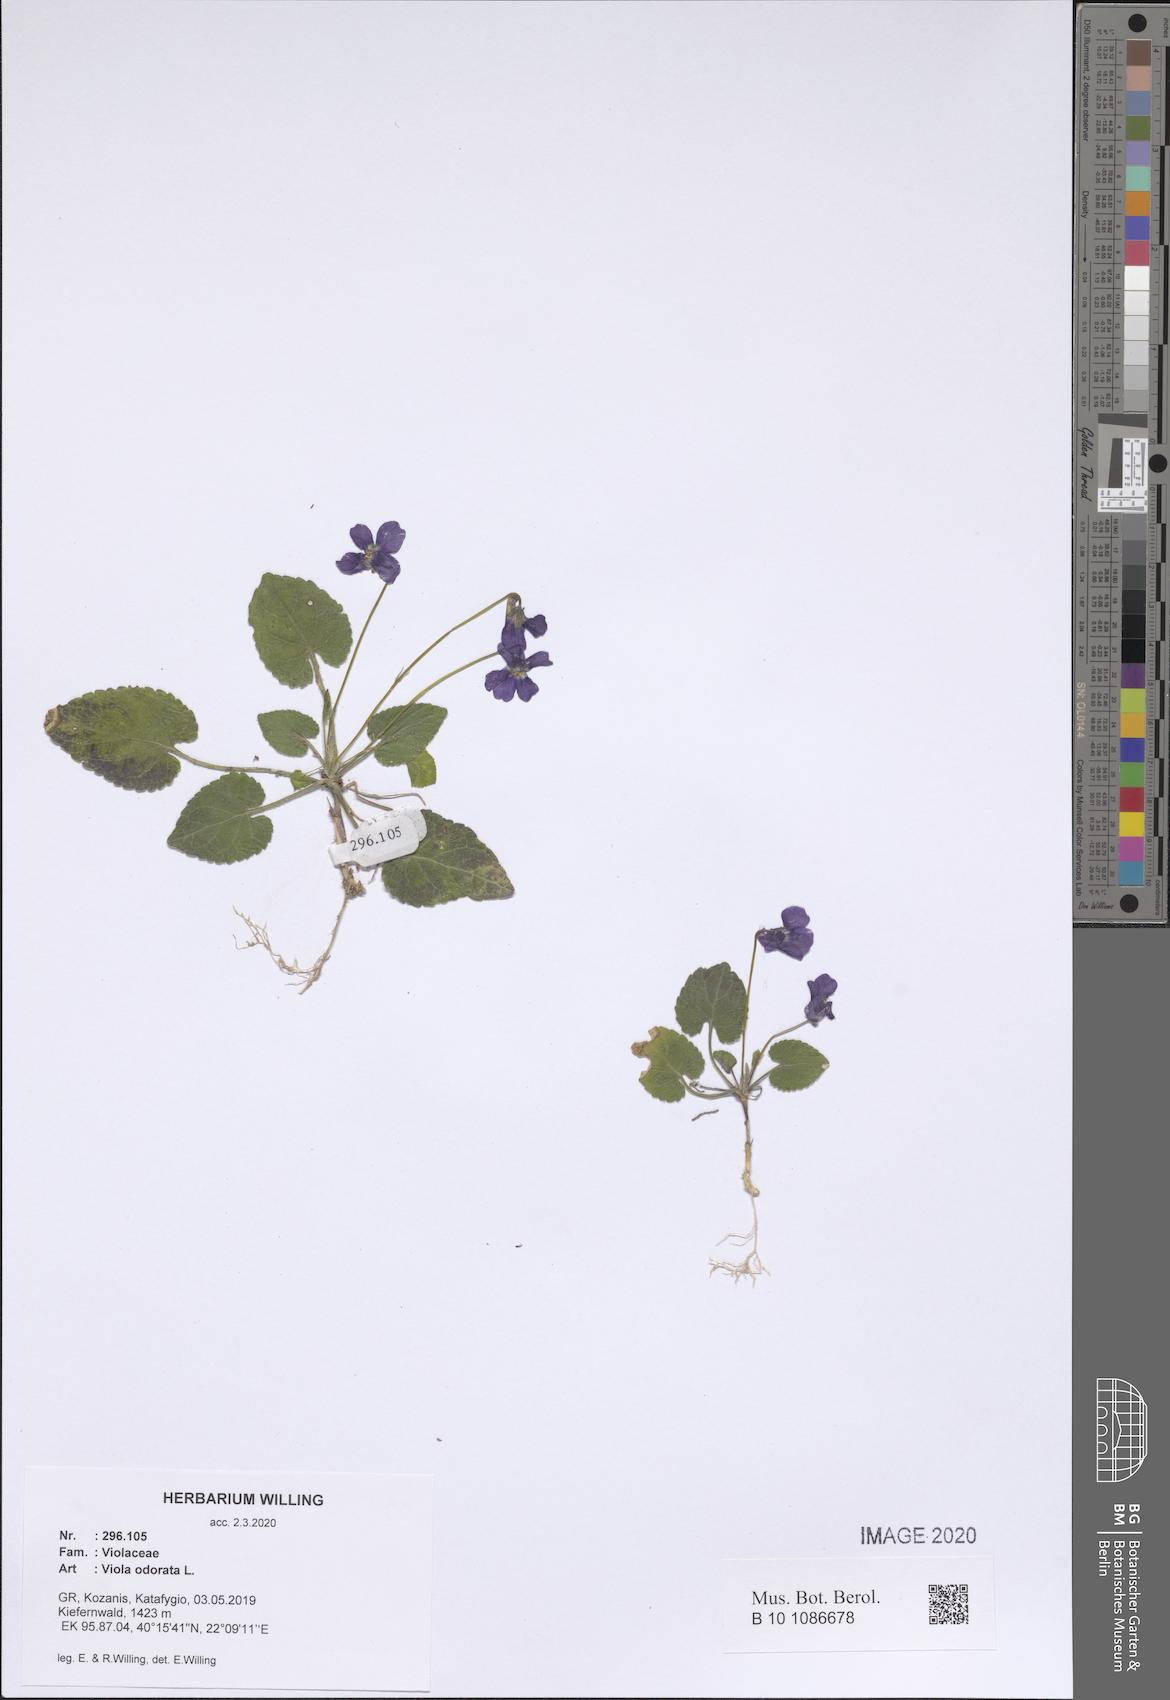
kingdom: Plantae
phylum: Tracheophyta
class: Magnoliopsida
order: Malpighiales
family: Violaceae
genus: Viola
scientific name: Viola odorata
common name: Sweet violet
